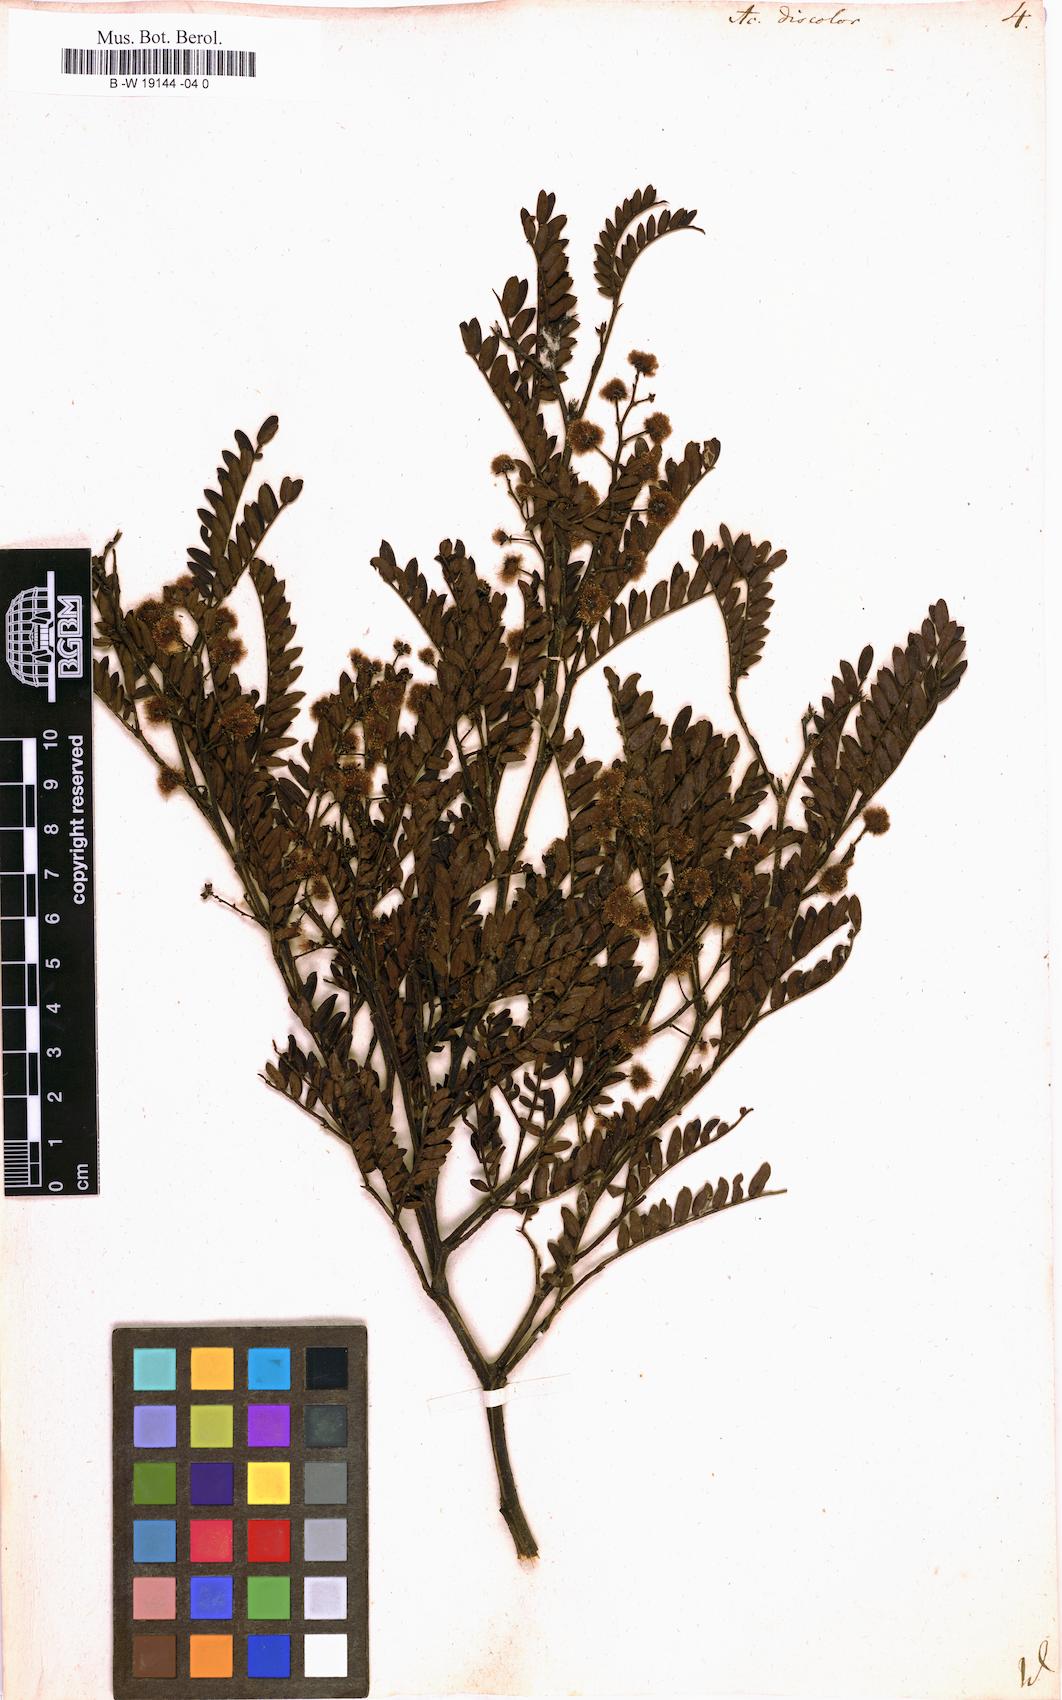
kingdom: Plantae
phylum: Tracheophyta
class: Magnoliopsida
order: Fabales
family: Fabaceae
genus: Acacia
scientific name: Acacia terminalis
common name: Cedar wattle
